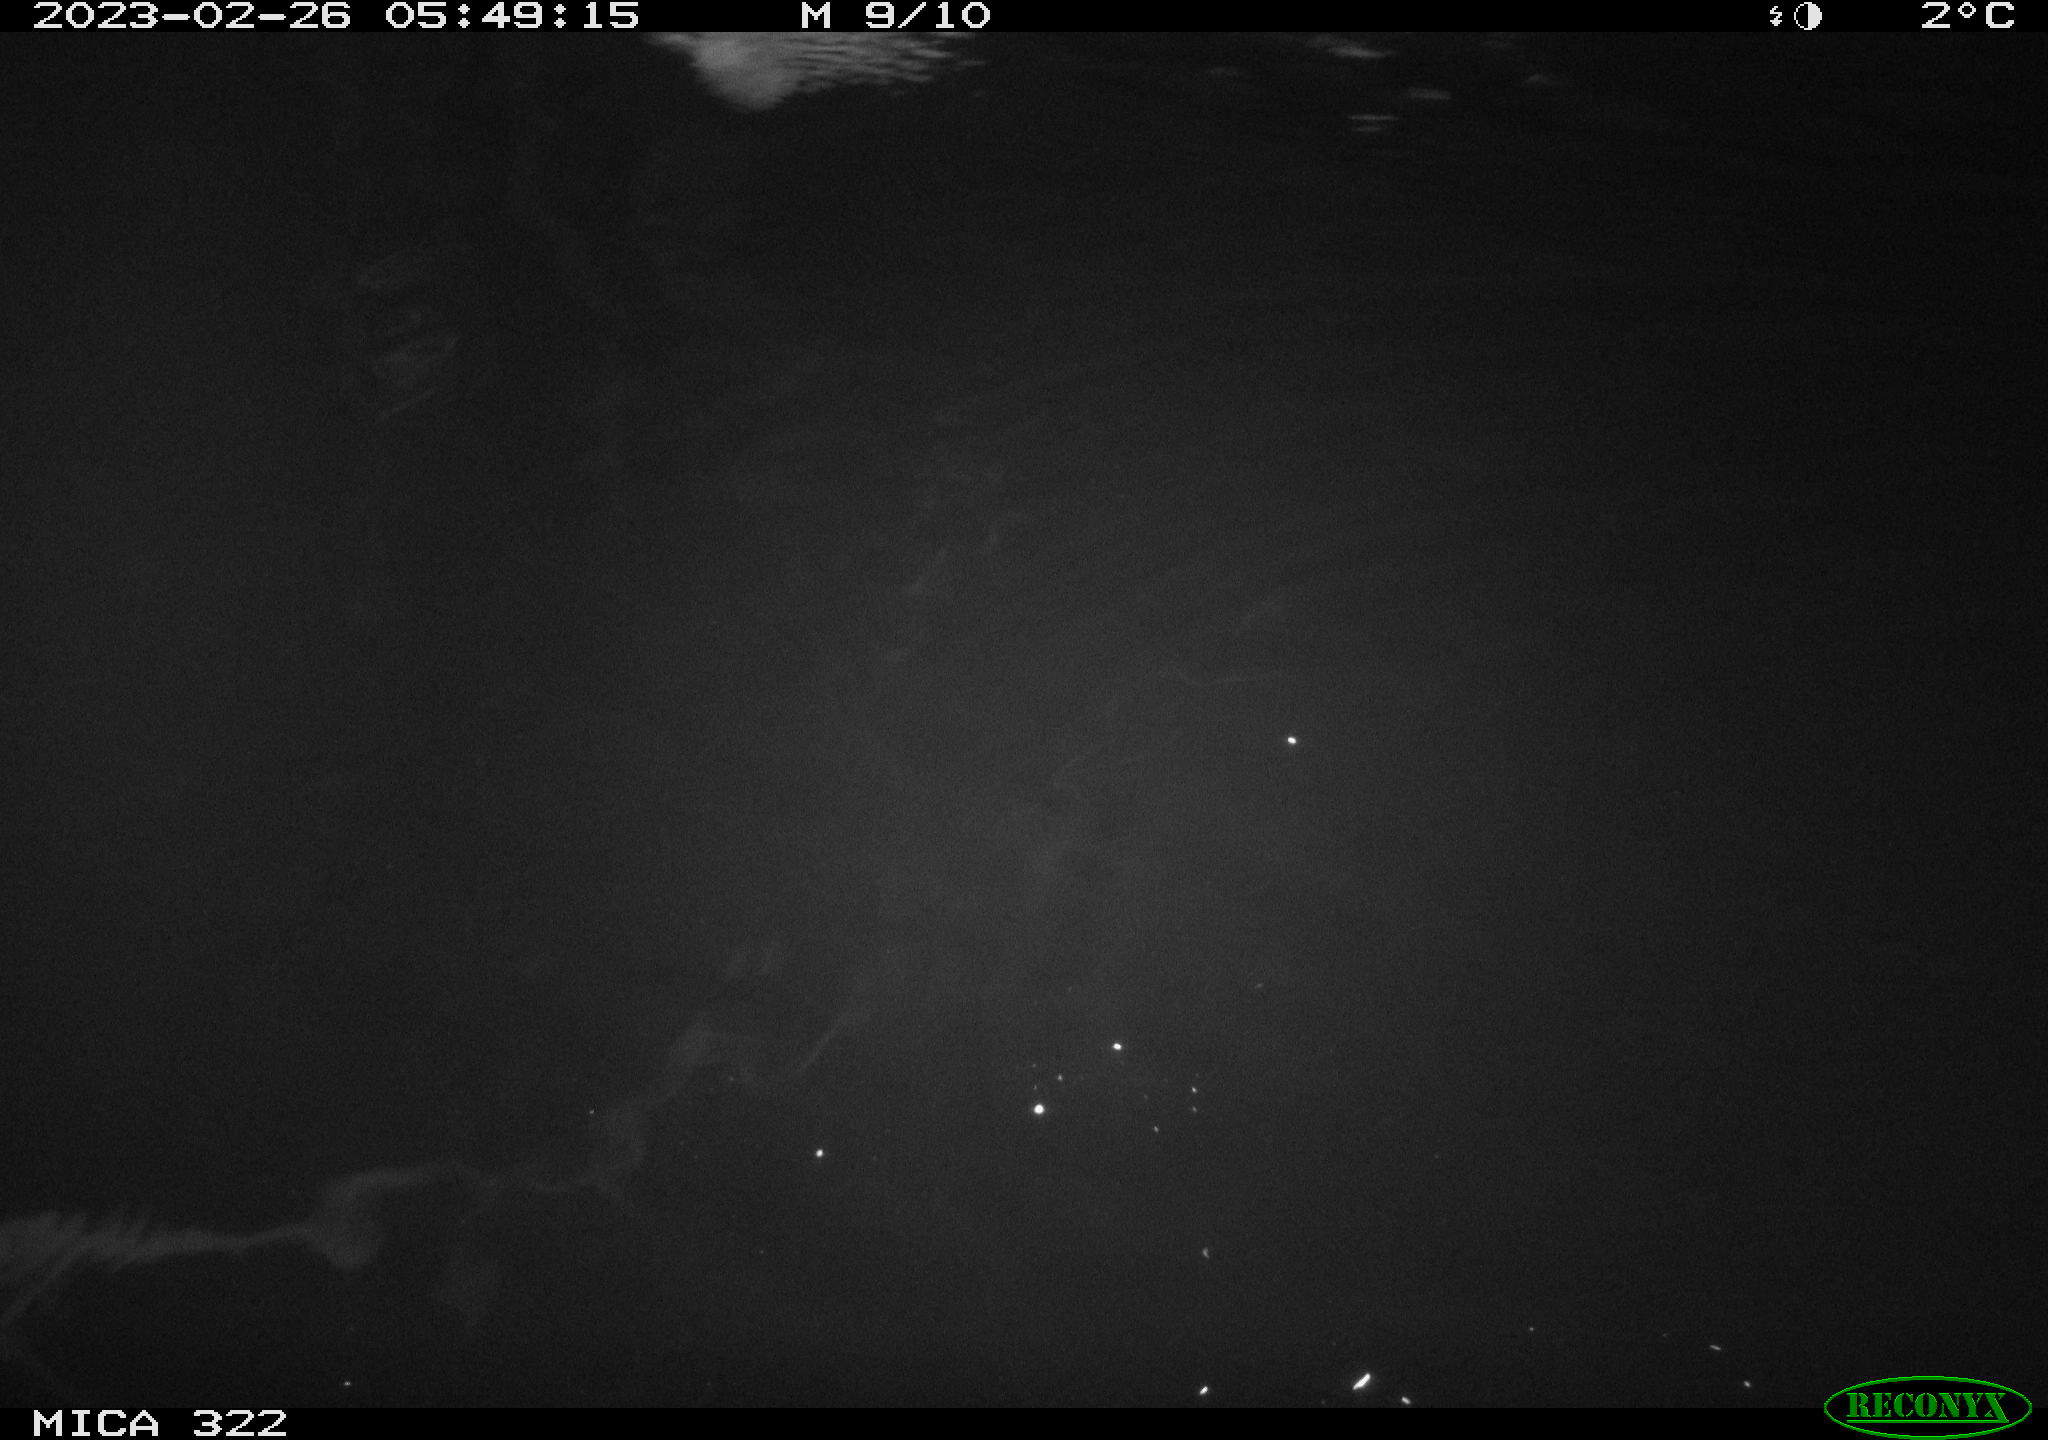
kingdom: Animalia
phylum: Chordata
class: Aves
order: Anseriformes
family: Anatidae
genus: Anas
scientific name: Anas
